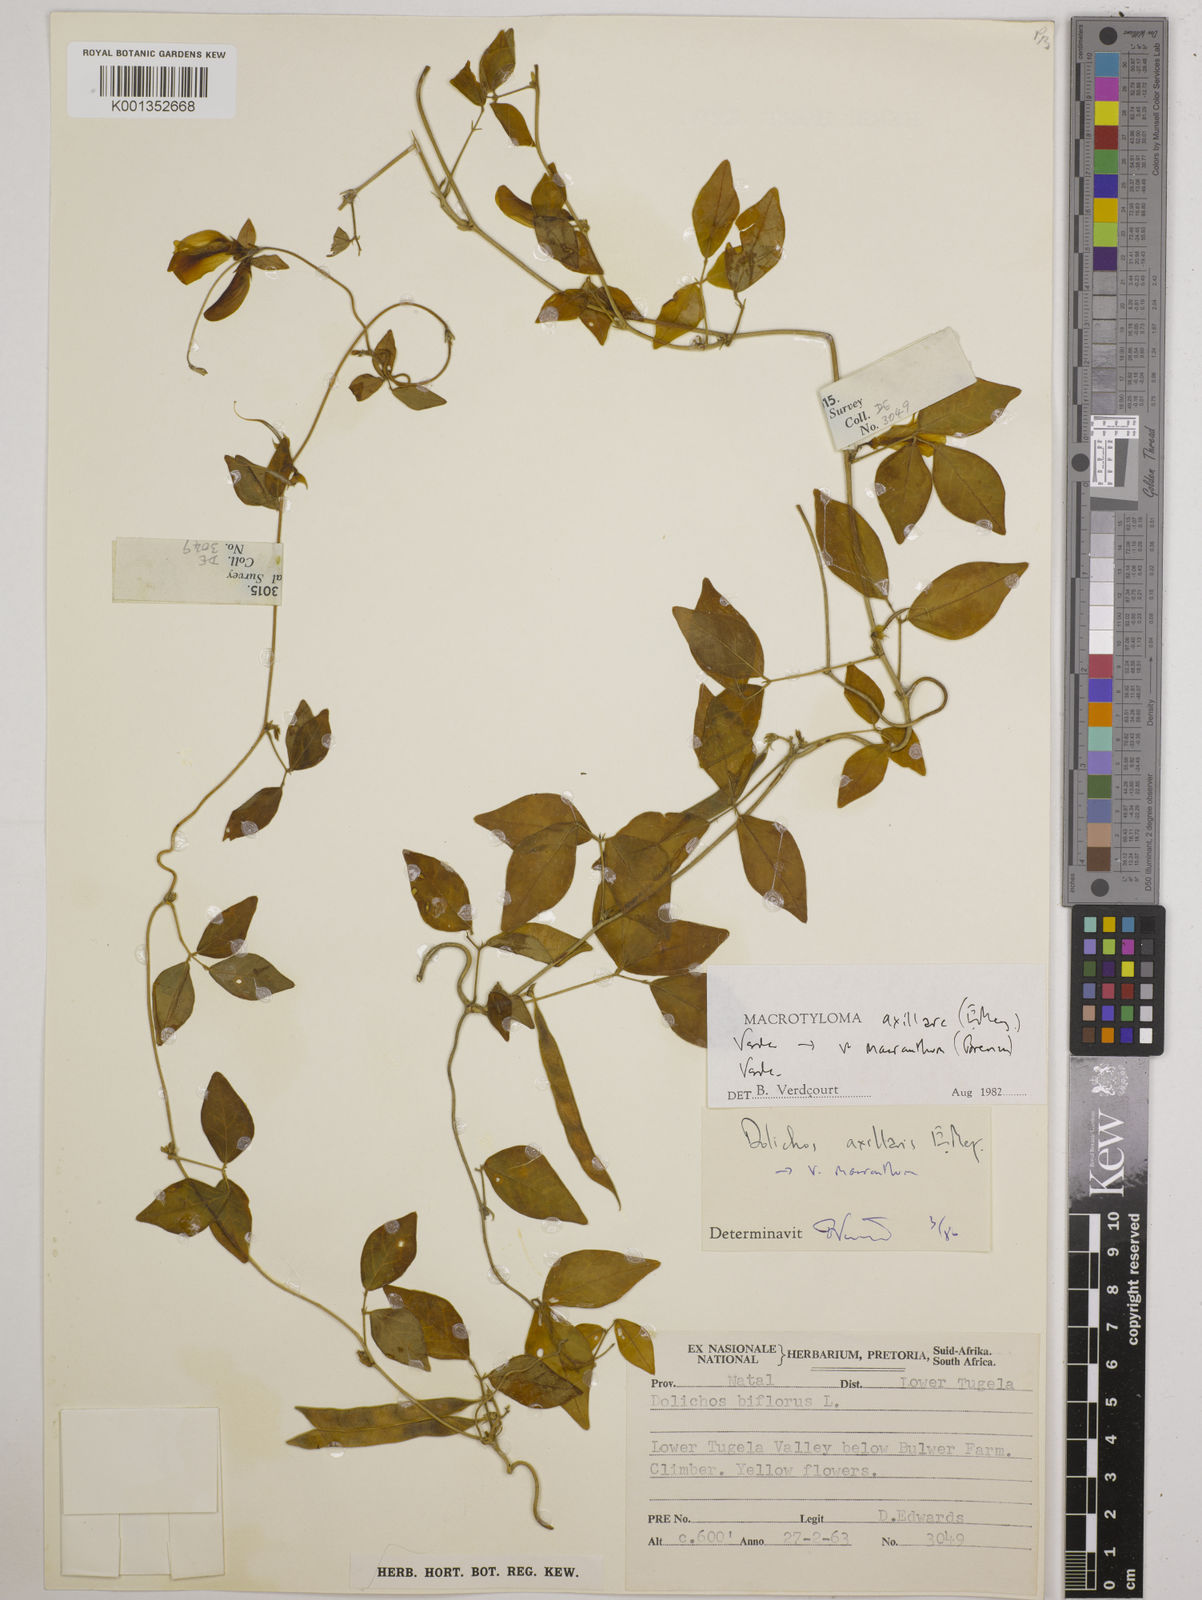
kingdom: Plantae
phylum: Tracheophyta
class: Magnoliopsida
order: Fabales
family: Fabaceae
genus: Macrotyloma
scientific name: Macrotyloma axillare
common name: Perennial horsegram
